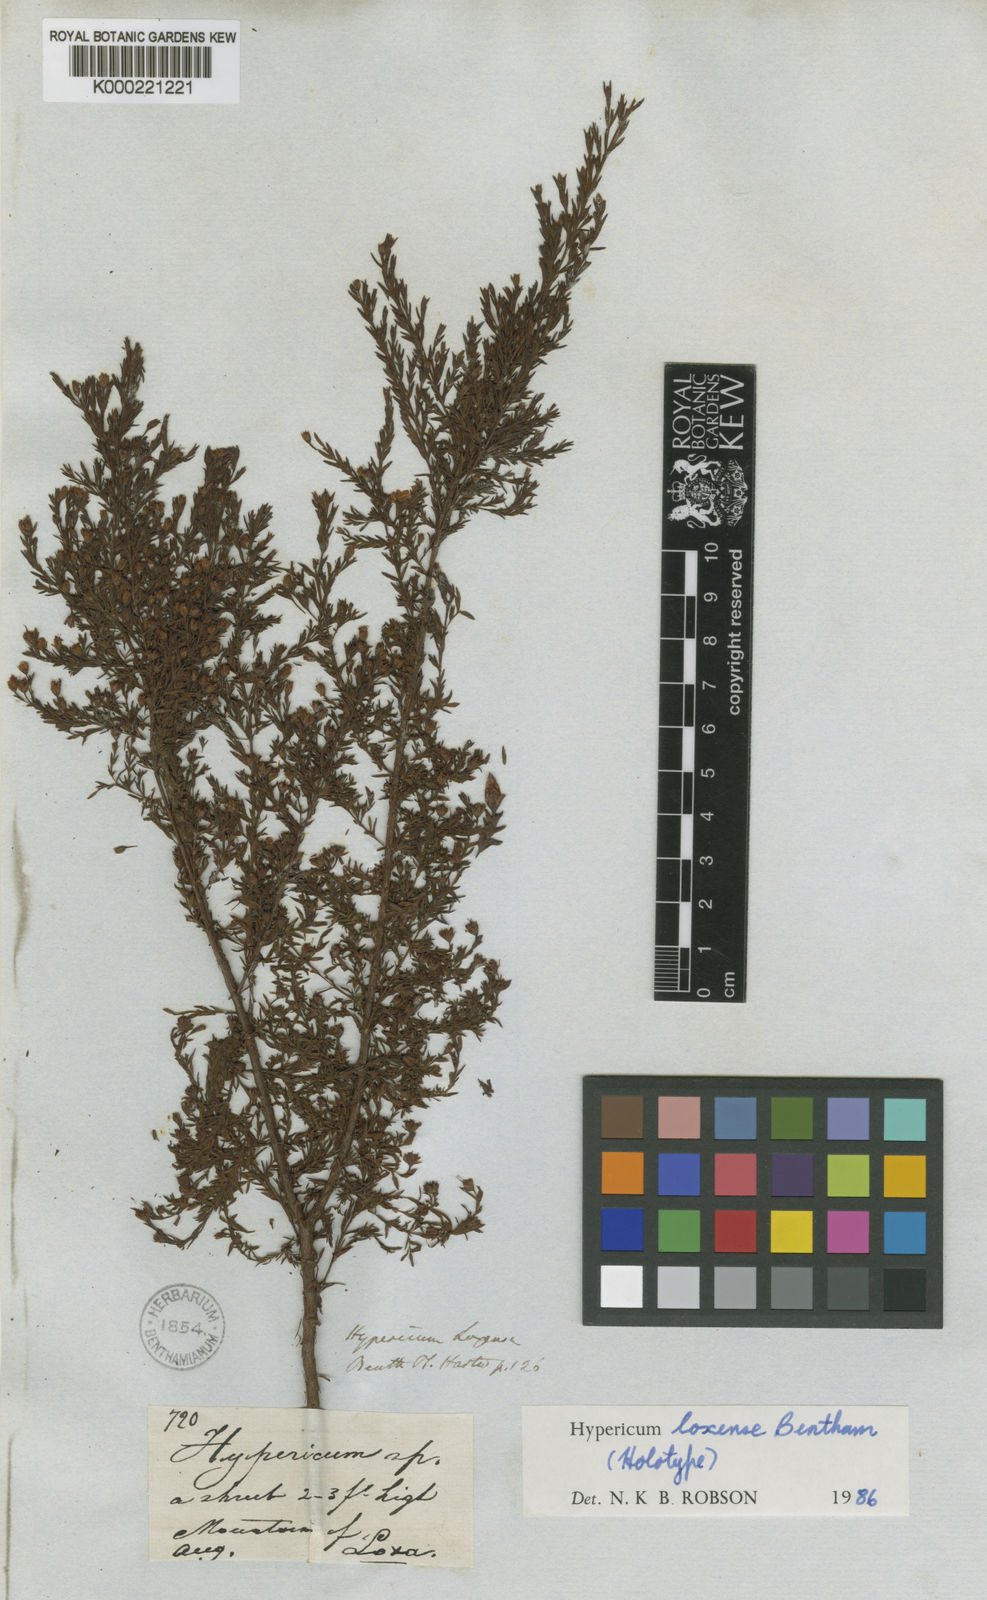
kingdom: Plantae
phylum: Tracheophyta
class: Magnoliopsida
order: Malpighiales
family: Hypericaceae
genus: Hypericum
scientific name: Hypericum loxense
